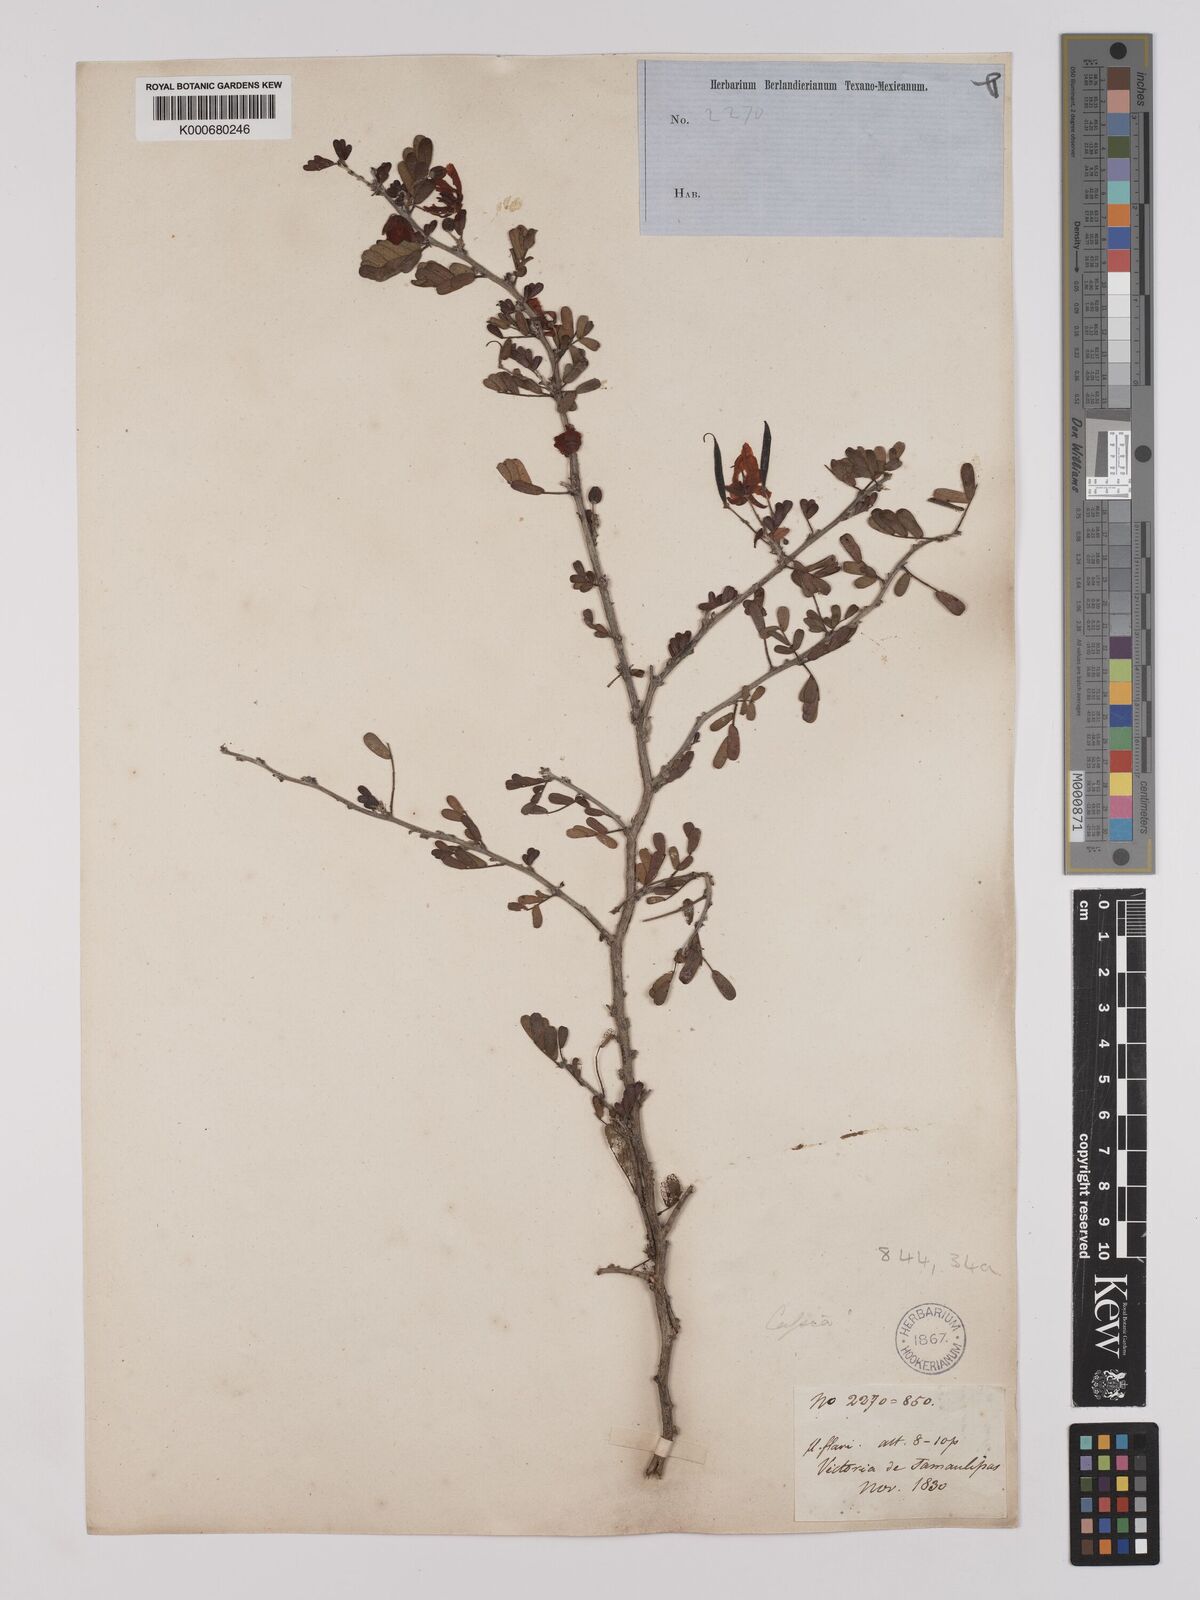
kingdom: Plantae
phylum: Tracheophyta
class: Magnoliopsida
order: Fabales
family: Fabaceae
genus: Chamaecrista
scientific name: Chamaecrista greggii
